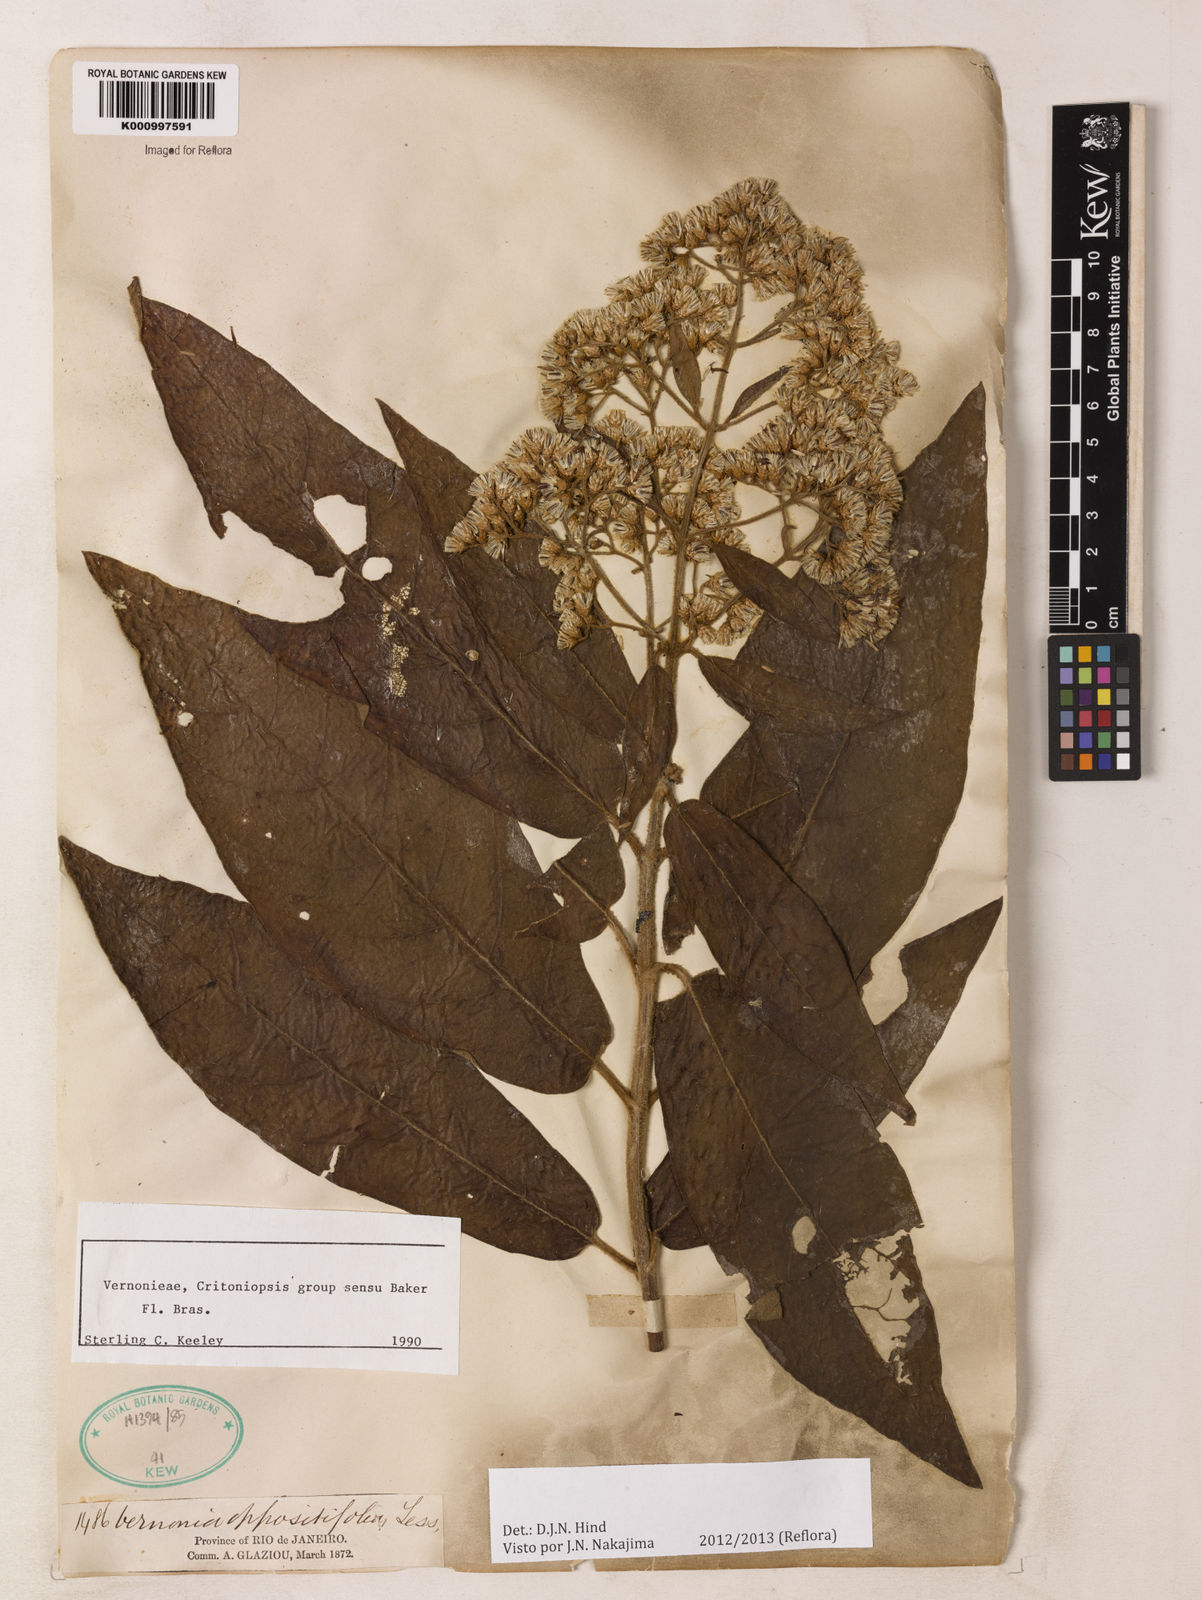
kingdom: Plantae
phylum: Tracheophyta
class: Magnoliopsida
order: Asterales
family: Asteraceae
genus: Critoniopsis
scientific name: Critoniopsis stellata
